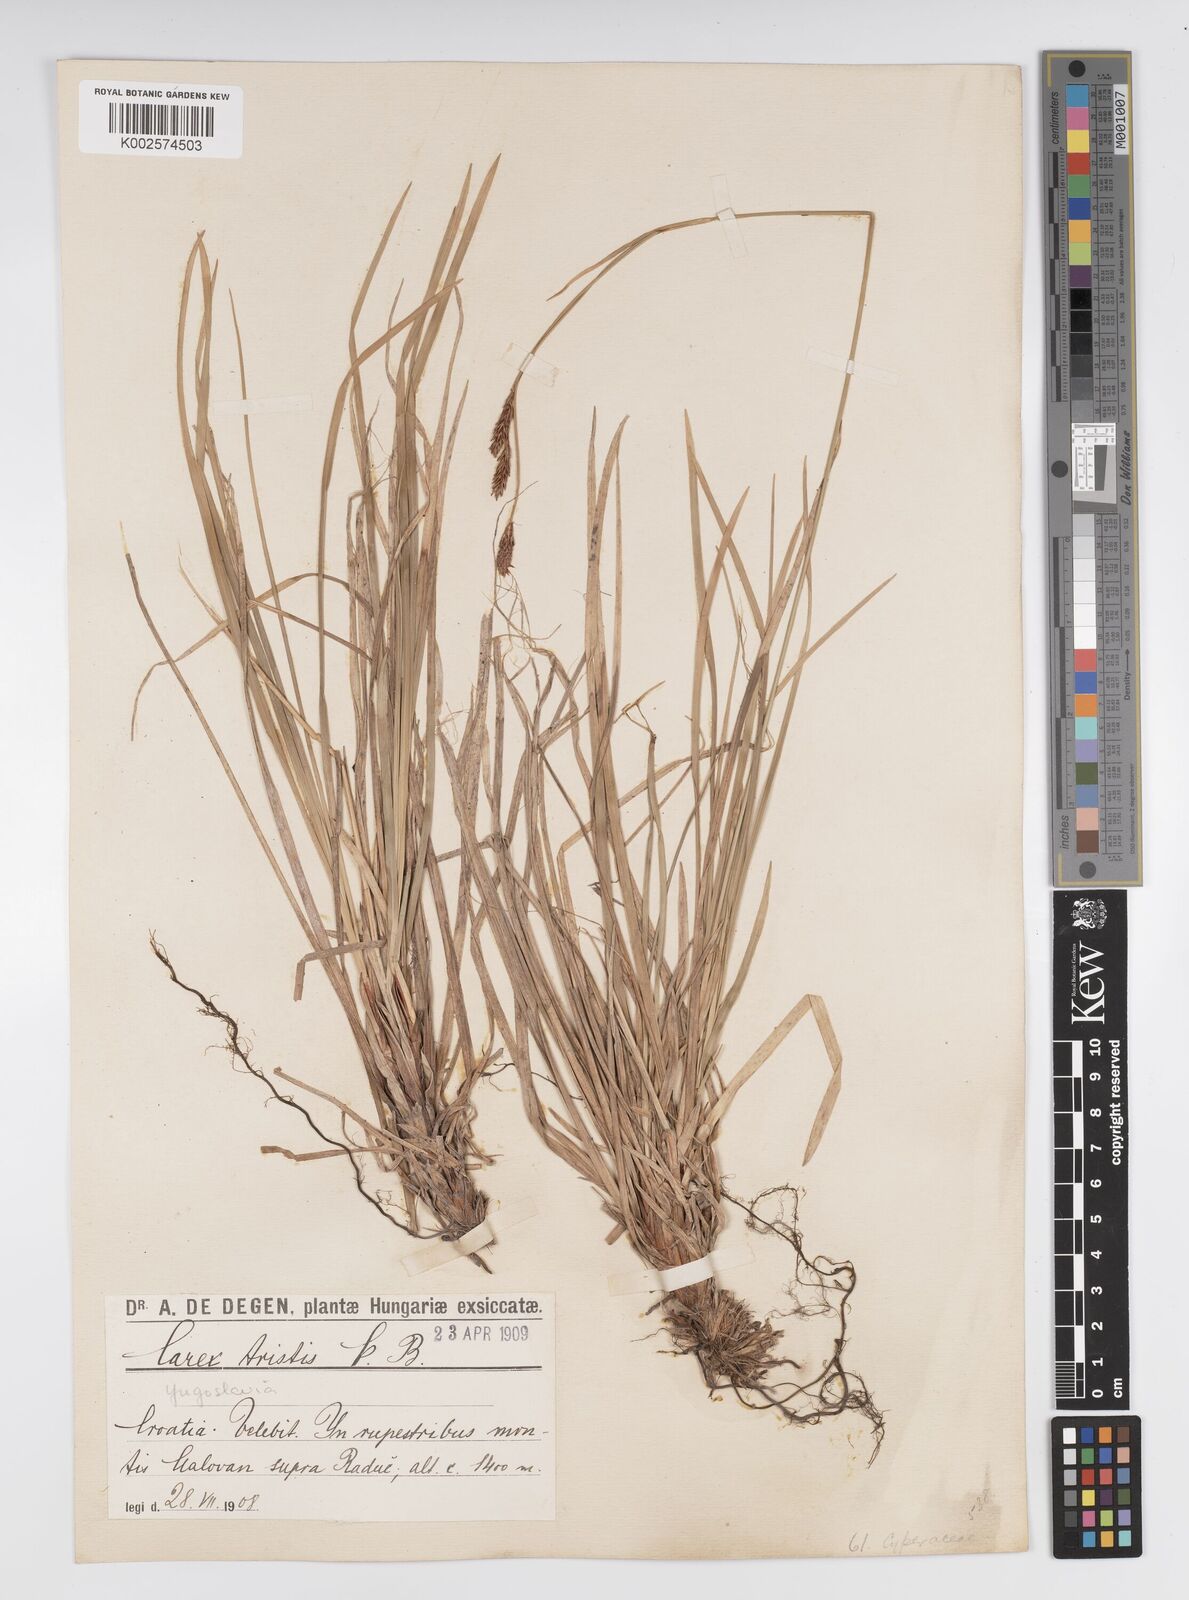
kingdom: Plantae
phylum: Tracheophyta
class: Liliopsida
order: Poales
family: Cyperaceae
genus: Carex
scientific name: Carex sempervirens
